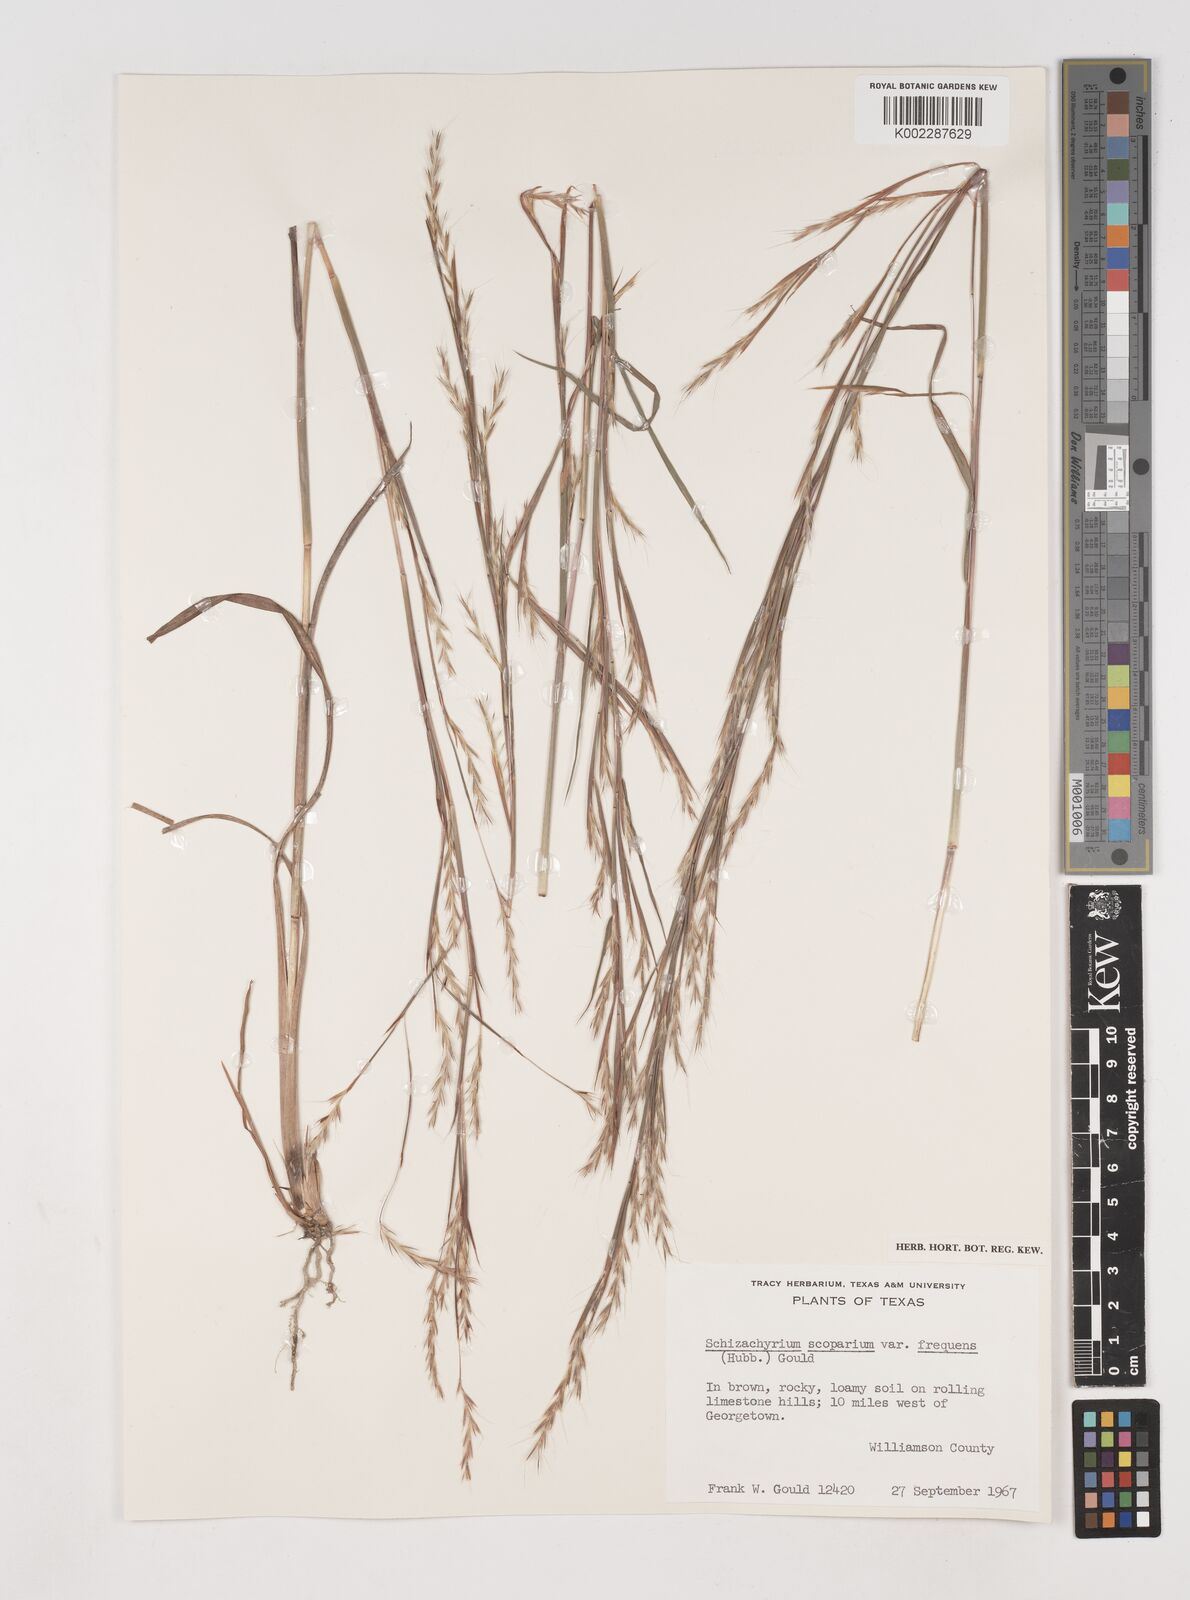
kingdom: Plantae
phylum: Tracheophyta
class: Liliopsida
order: Poales
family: Poaceae
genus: Schizachyrium
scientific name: Schizachyrium scoparium
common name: Little bluestem
